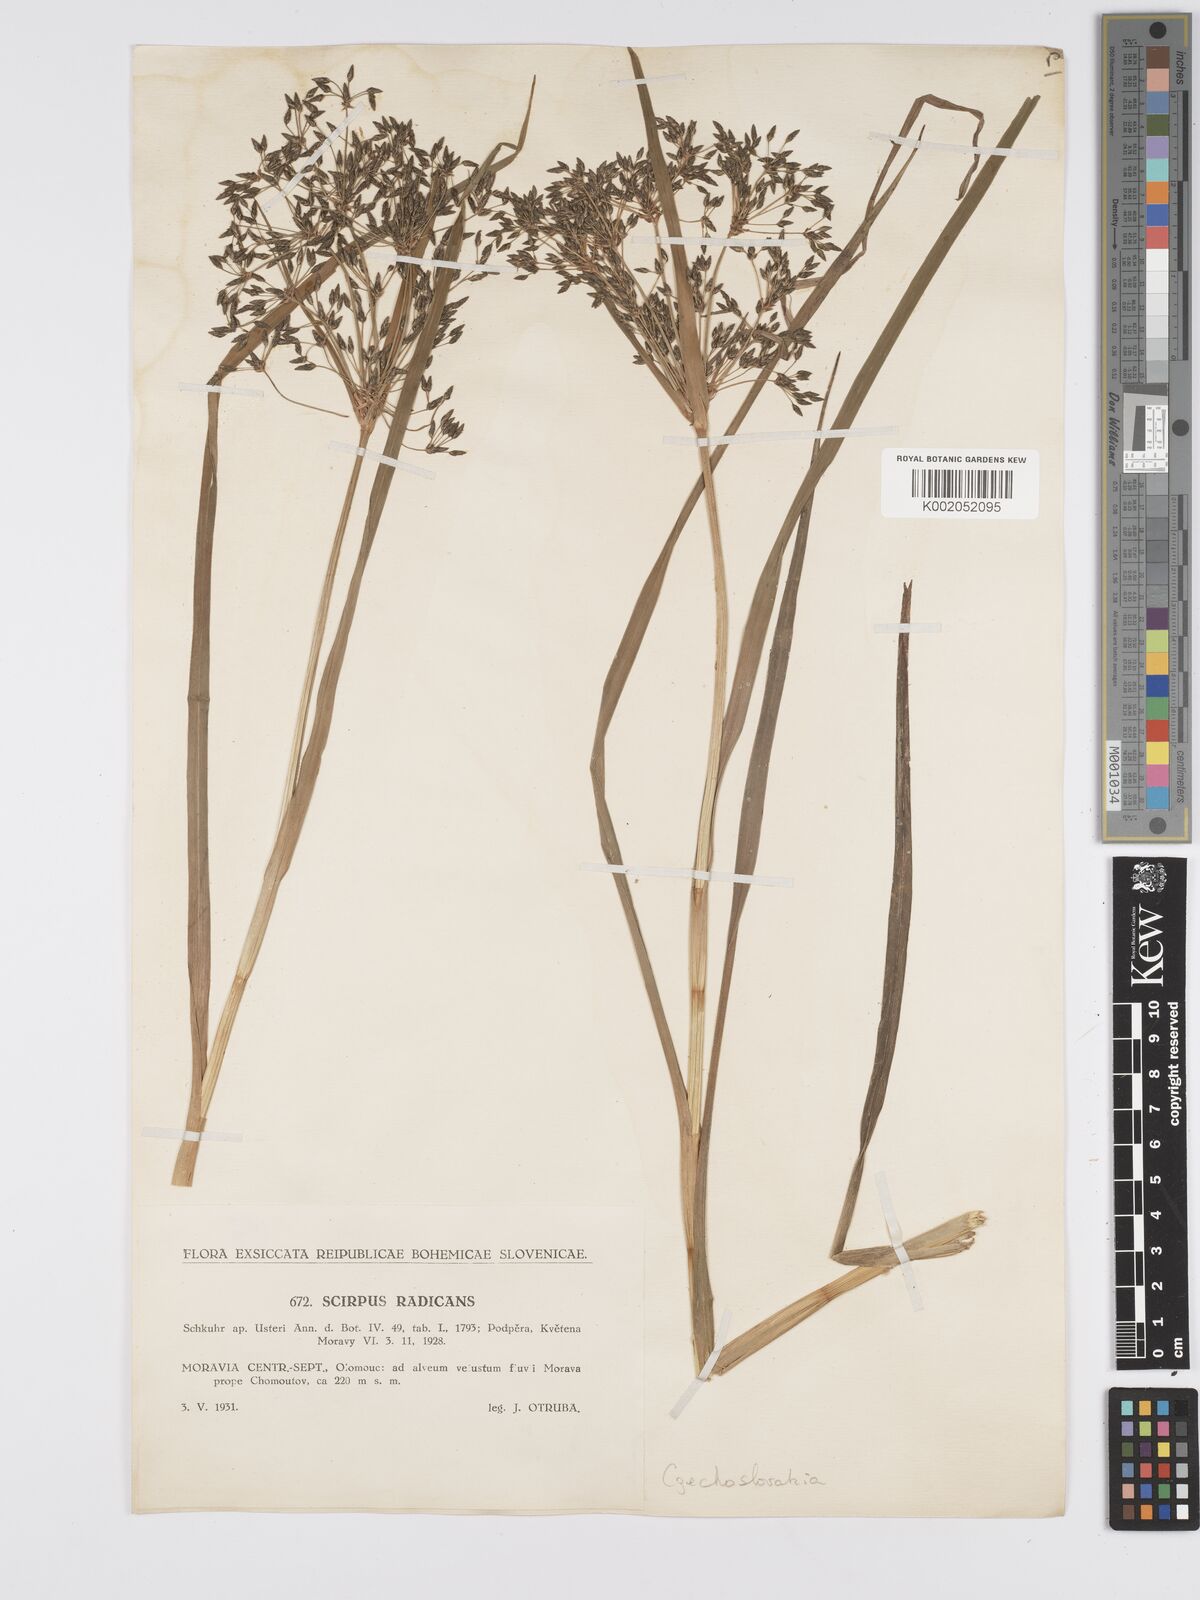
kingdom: Plantae
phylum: Tracheophyta
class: Liliopsida
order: Poales
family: Cyperaceae
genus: Scirpus
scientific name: Scirpus radicans
